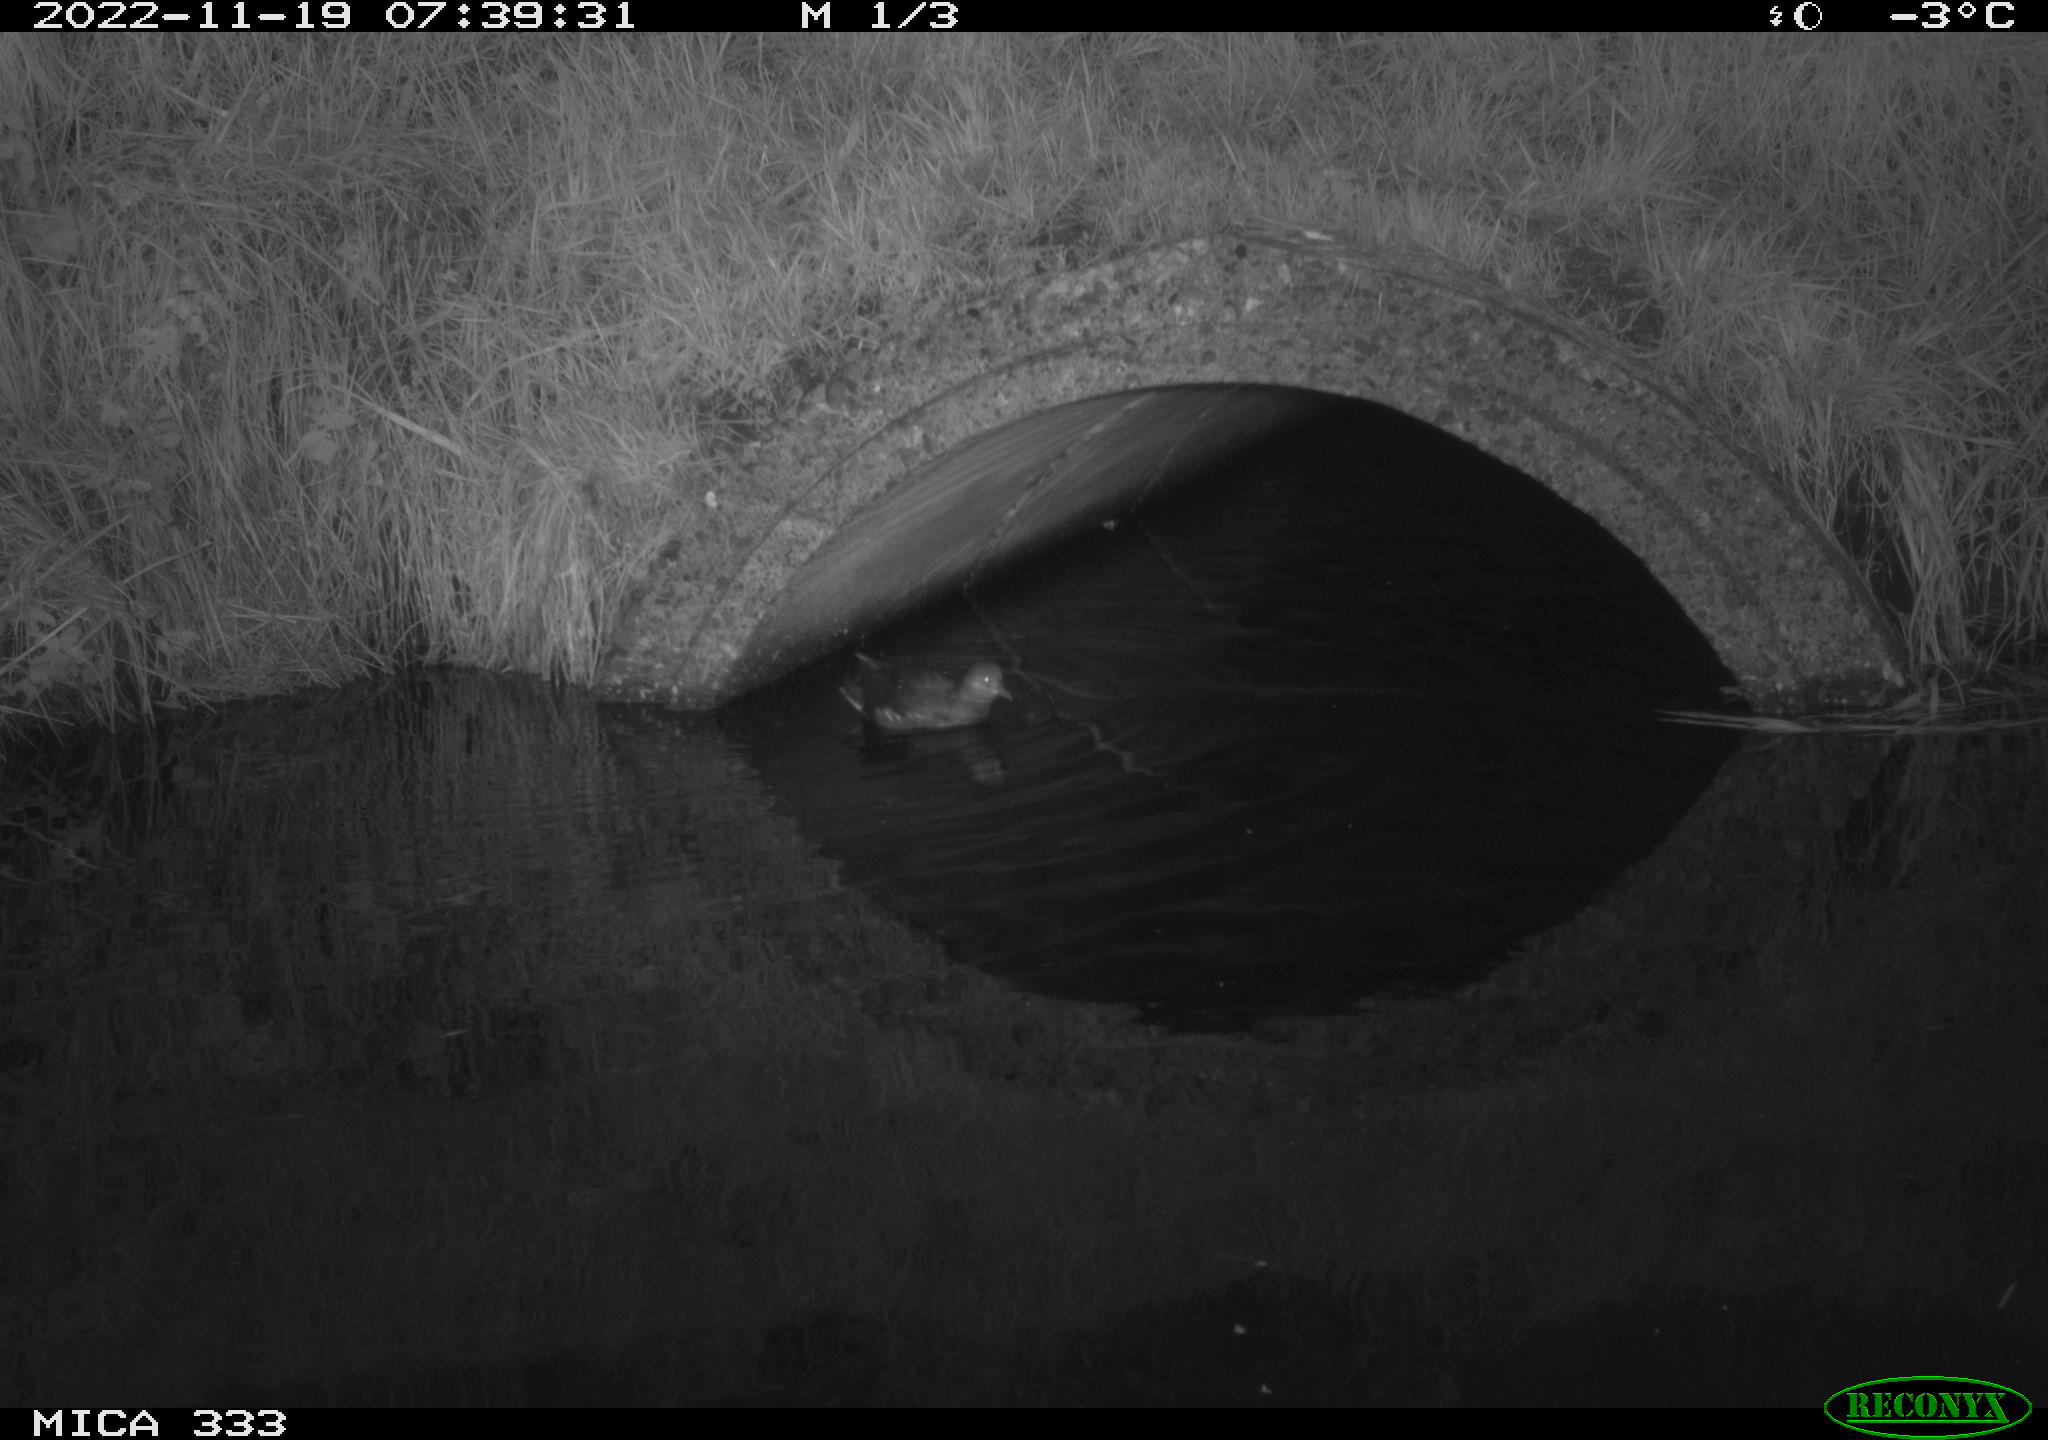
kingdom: Animalia
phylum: Chordata
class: Aves
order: Gruiformes
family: Rallidae
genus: Gallinula
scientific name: Gallinula chloropus
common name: Common moorhen
